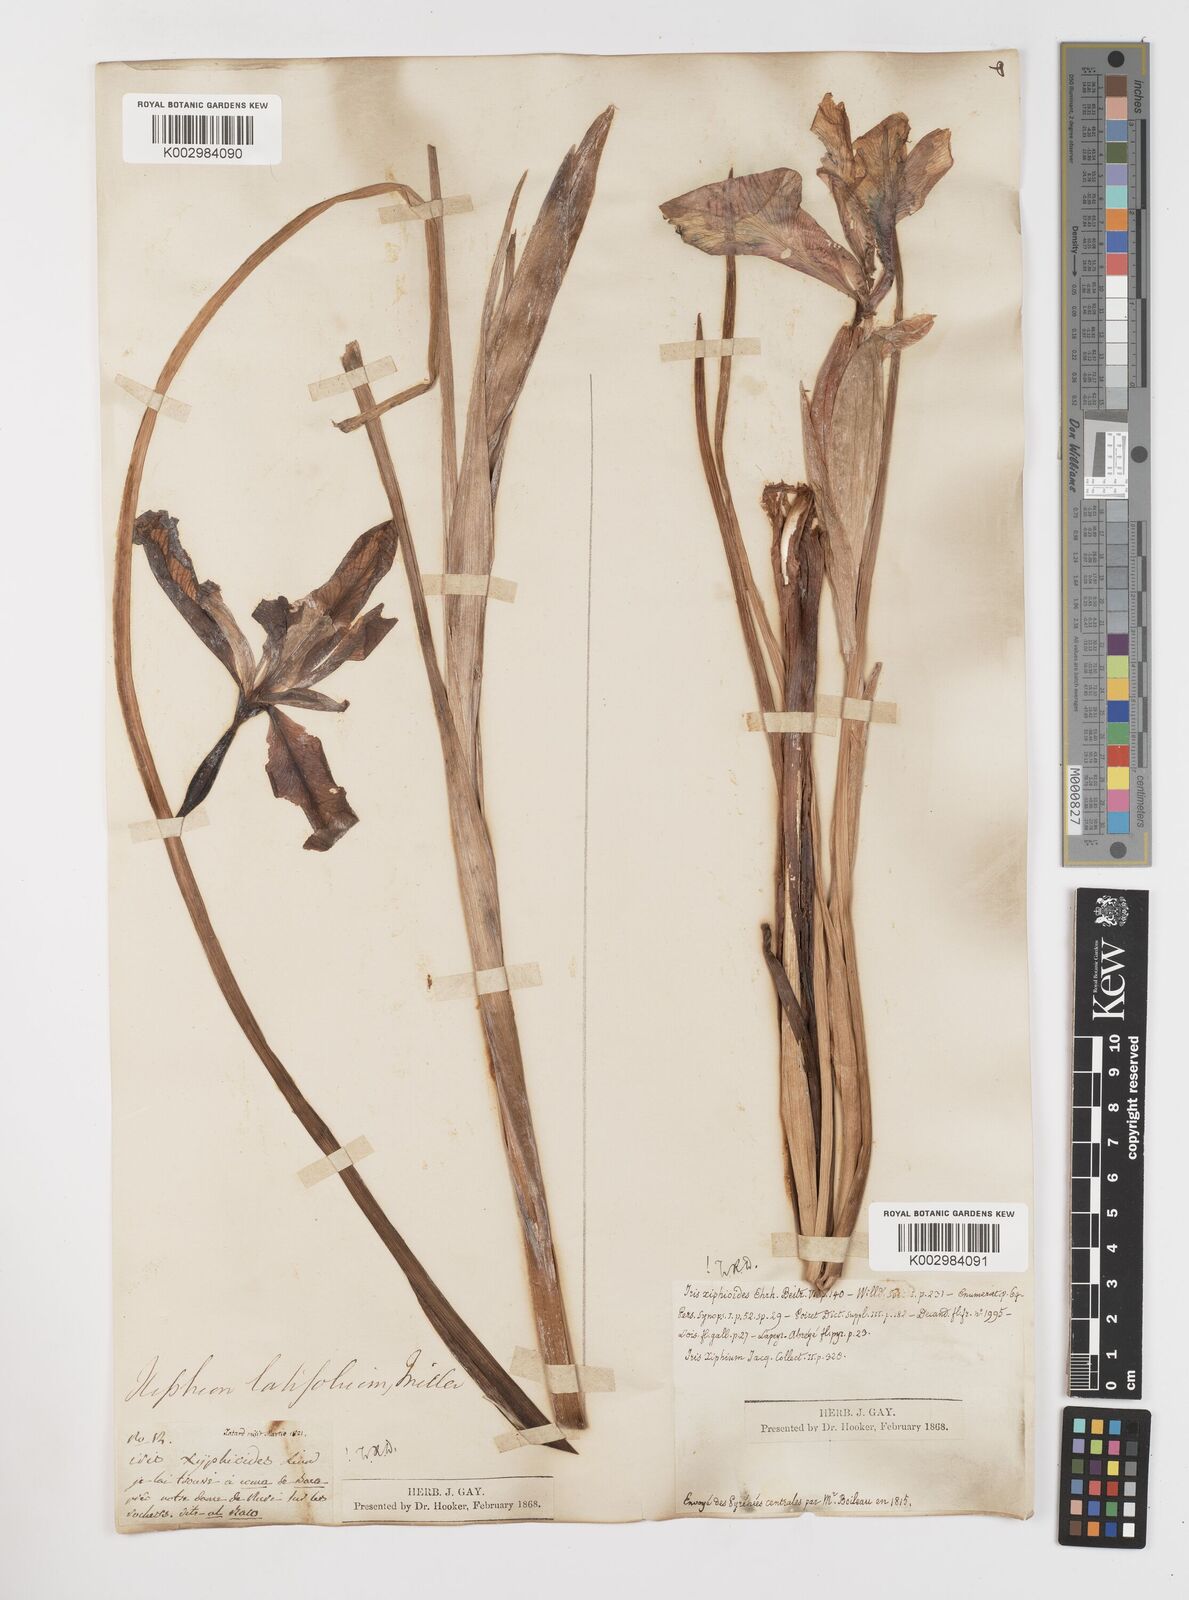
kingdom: Plantae
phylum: Tracheophyta
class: Liliopsida
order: Asparagales
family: Iridaceae
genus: Iris
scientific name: Iris jacquinii
